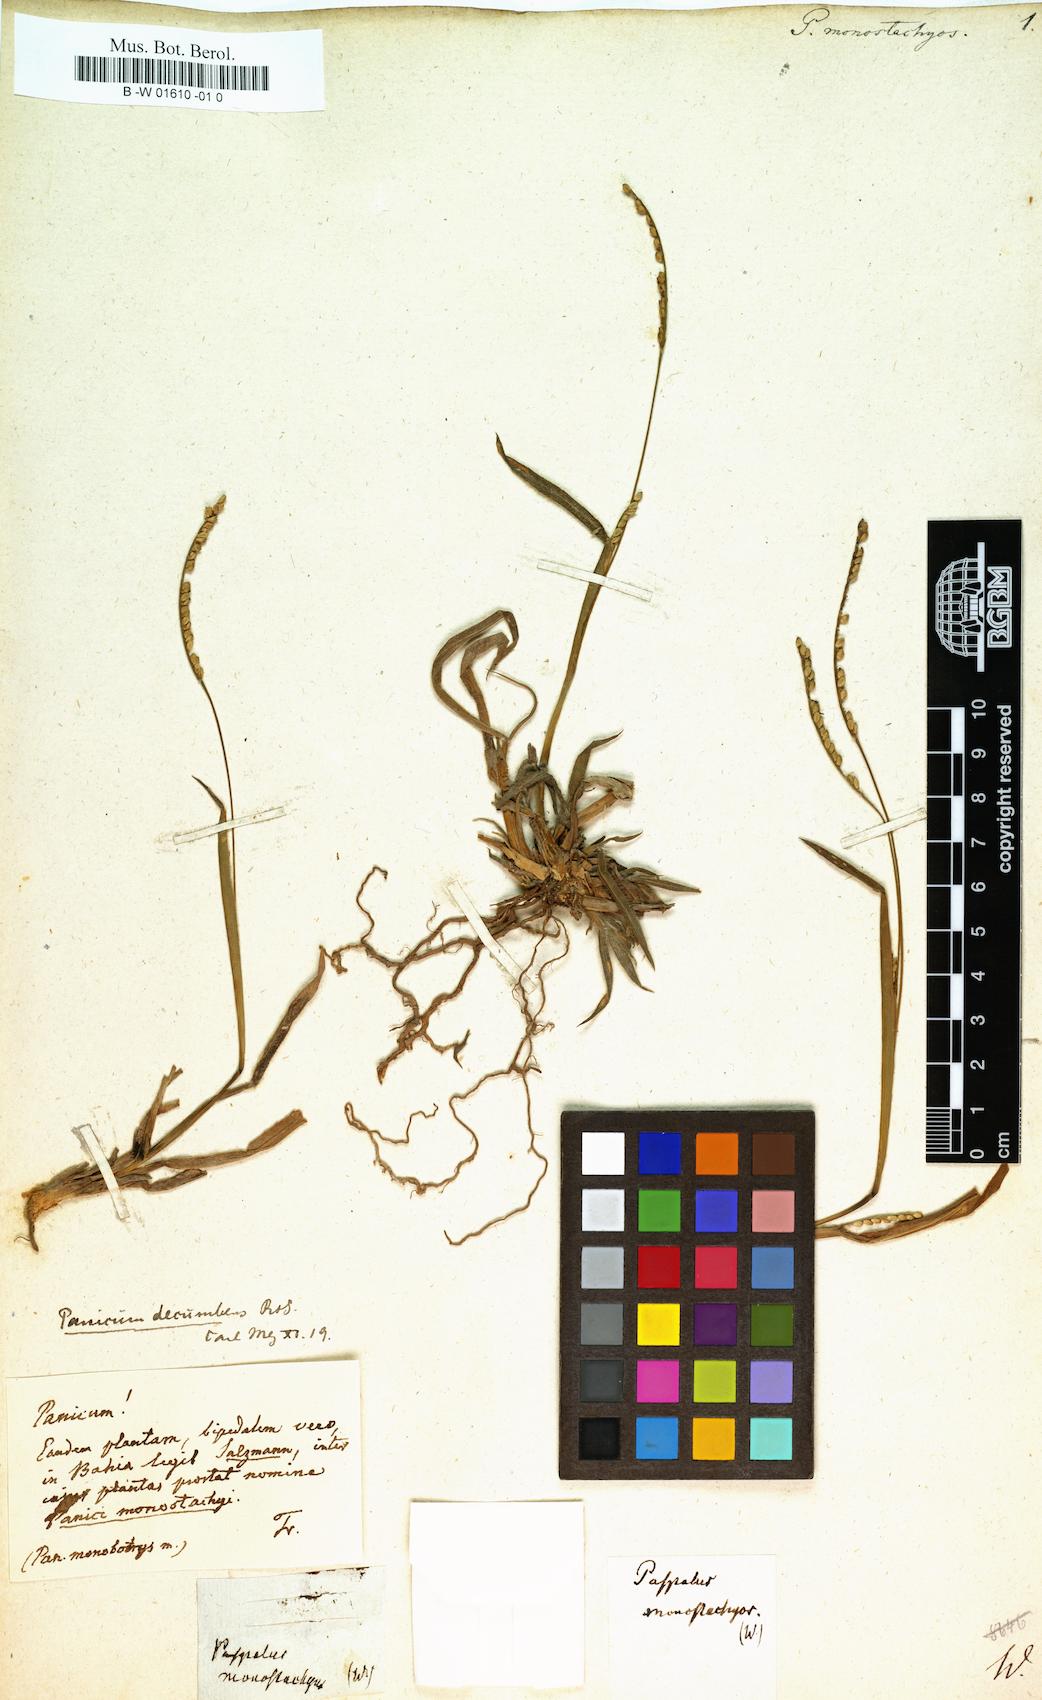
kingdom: Plantae
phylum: Tracheophyta
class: Liliopsida
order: Poales
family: Poaceae
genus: Paspalus
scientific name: Paspalus
